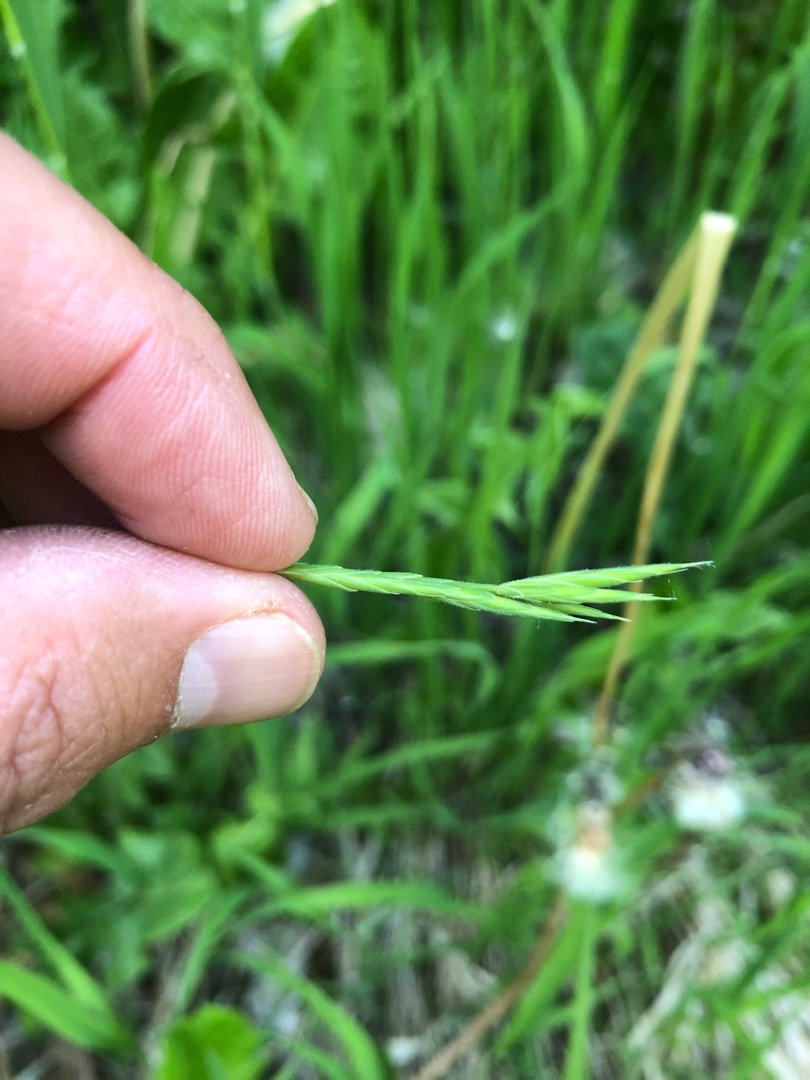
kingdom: Plantae
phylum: Tracheophyta
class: Liliopsida
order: Poales
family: Poaceae
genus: Brachypodium
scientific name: Brachypodium pinnatum
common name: Bakke-stilkaks
